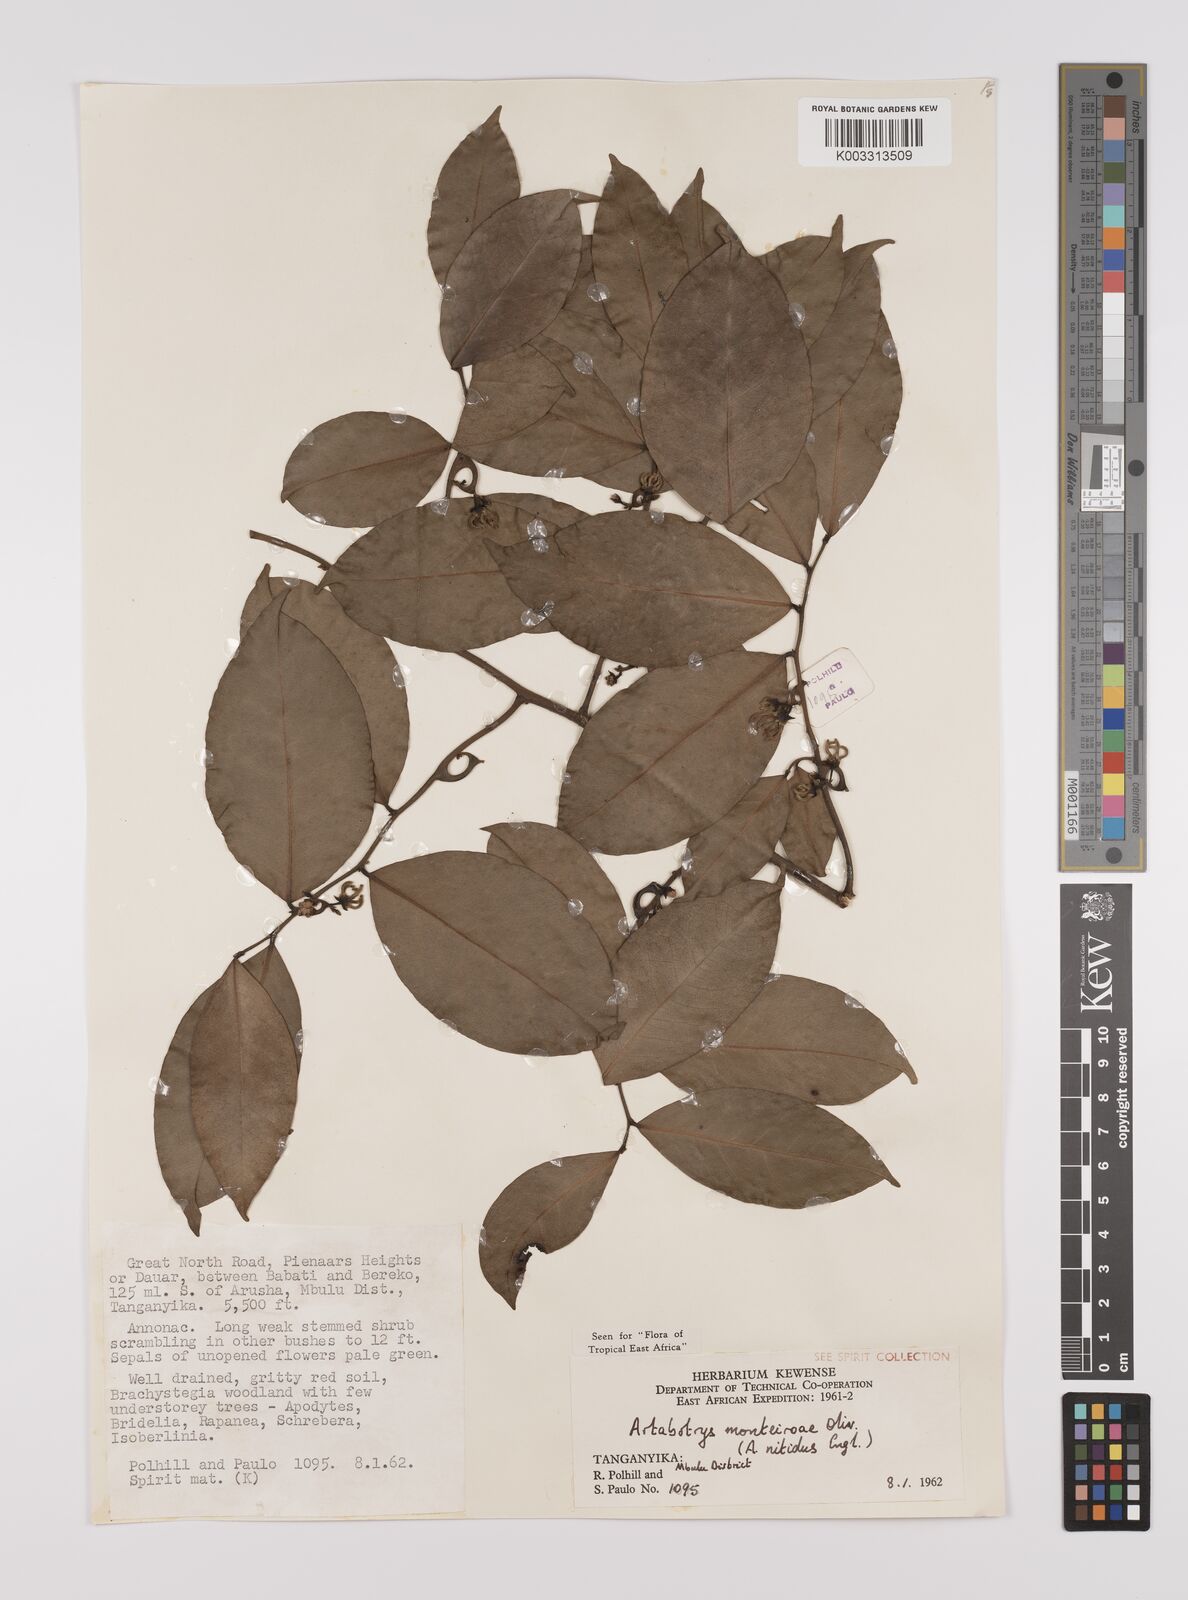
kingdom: Plantae
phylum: Tracheophyta
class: Magnoliopsida
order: Magnoliales
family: Annonaceae
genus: Artabotrys
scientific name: Artabotrys monteiroae
